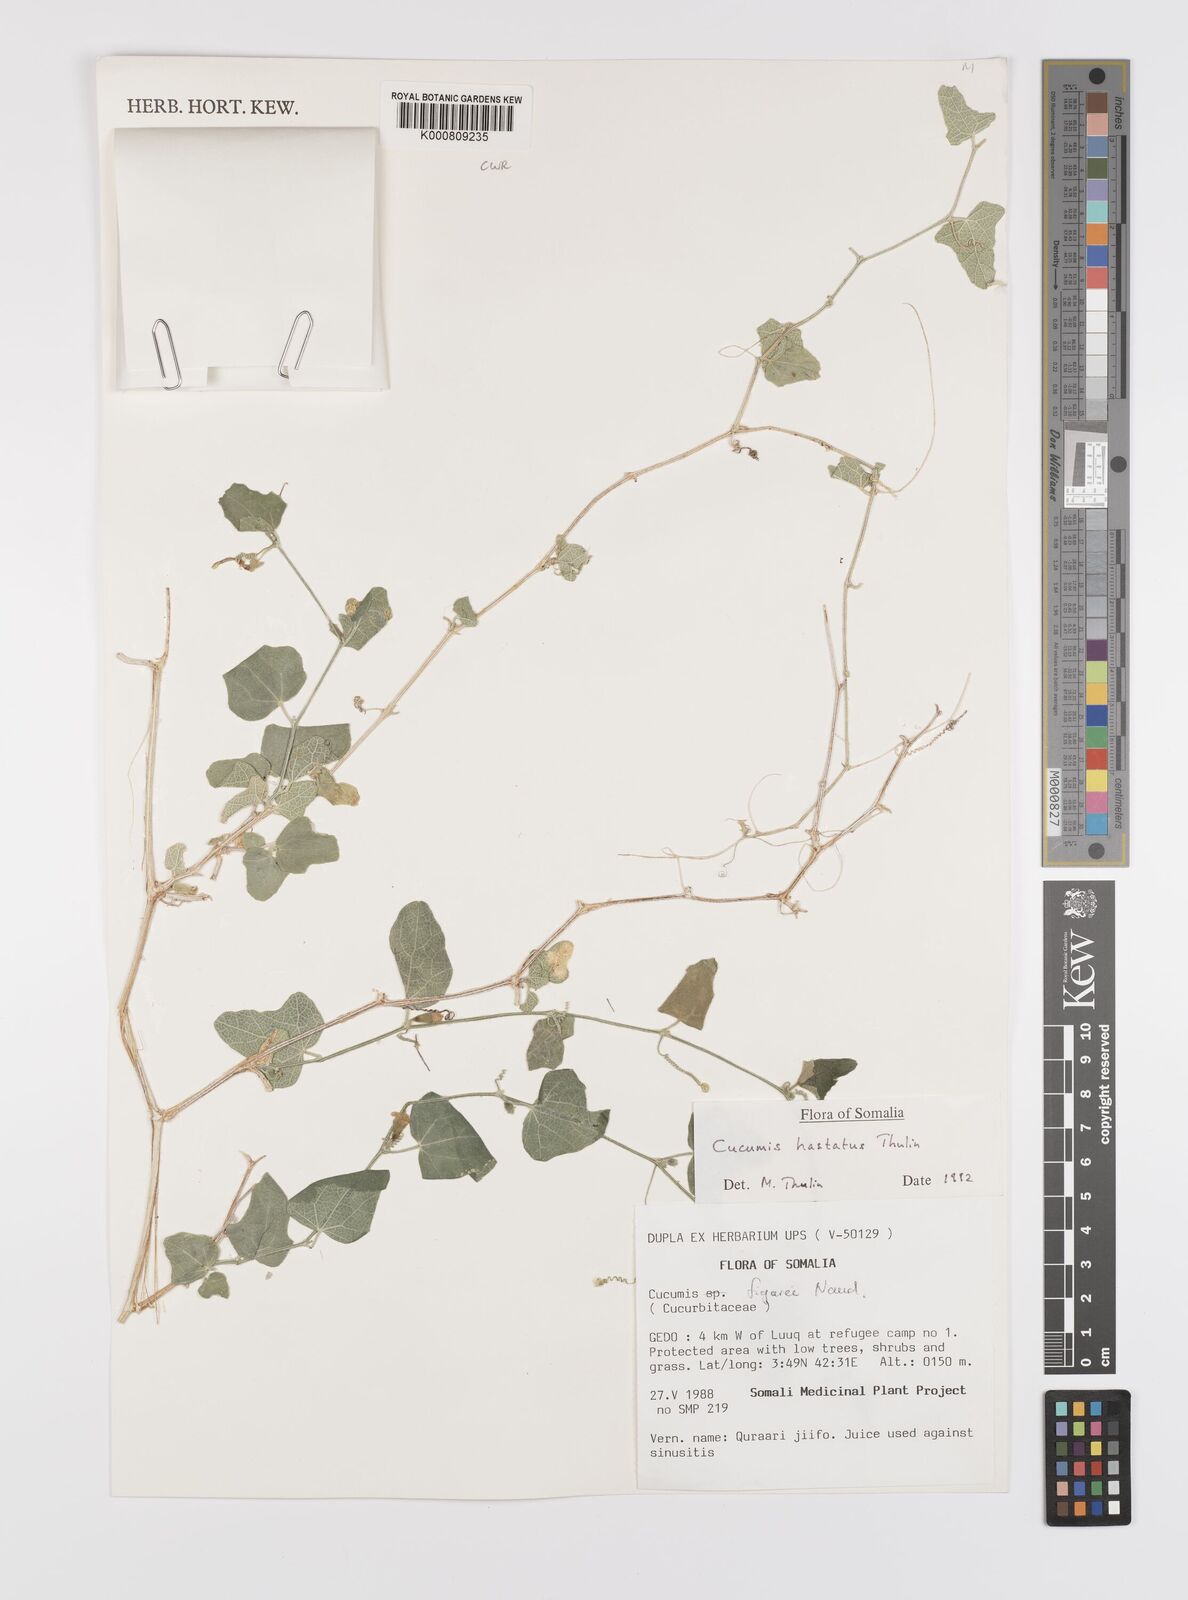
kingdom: Plantae
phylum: Tracheophyta
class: Magnoliopsida
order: Cucurbitales
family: Cucurbitaceae
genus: Cucumis
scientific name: Cucumis
